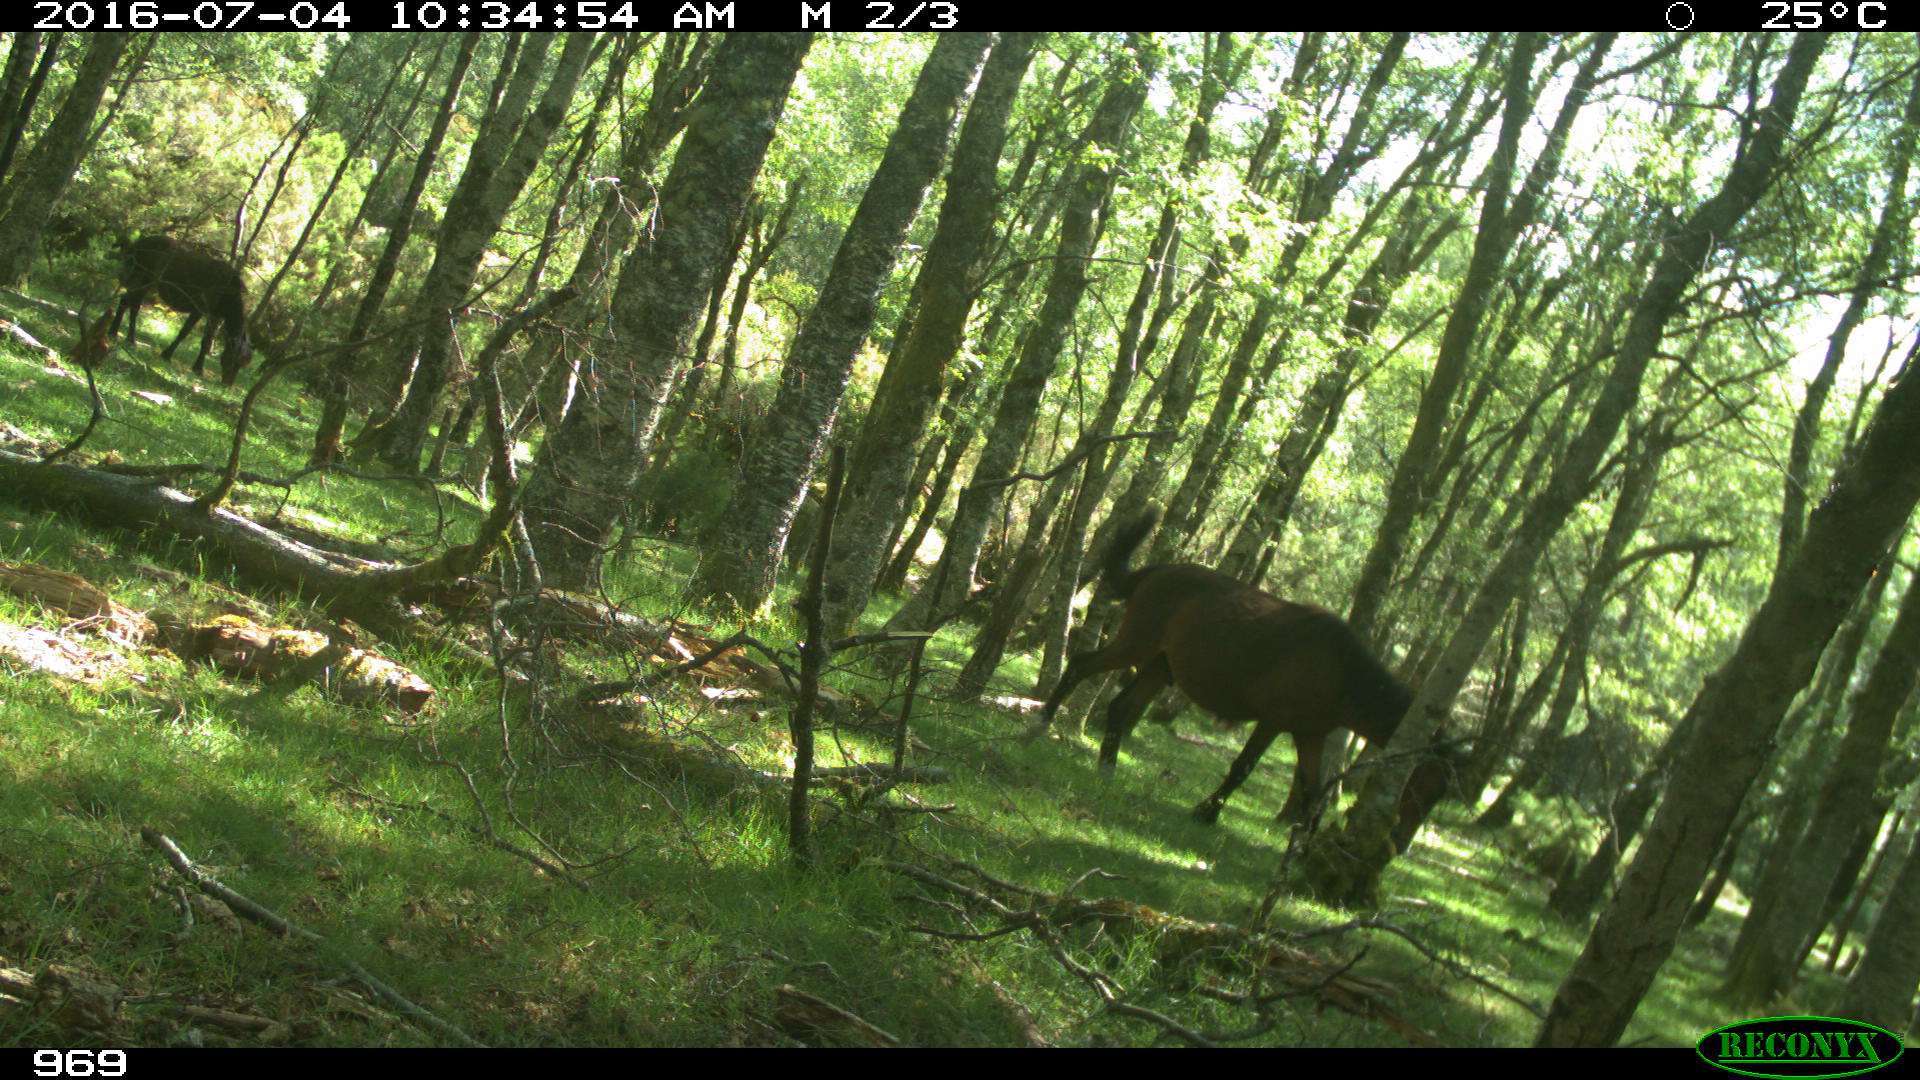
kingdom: Animalia
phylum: Chordata
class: Mammalia
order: Perissodactyla
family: Equidae
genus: Equus
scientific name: Equus caballus
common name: Horse
